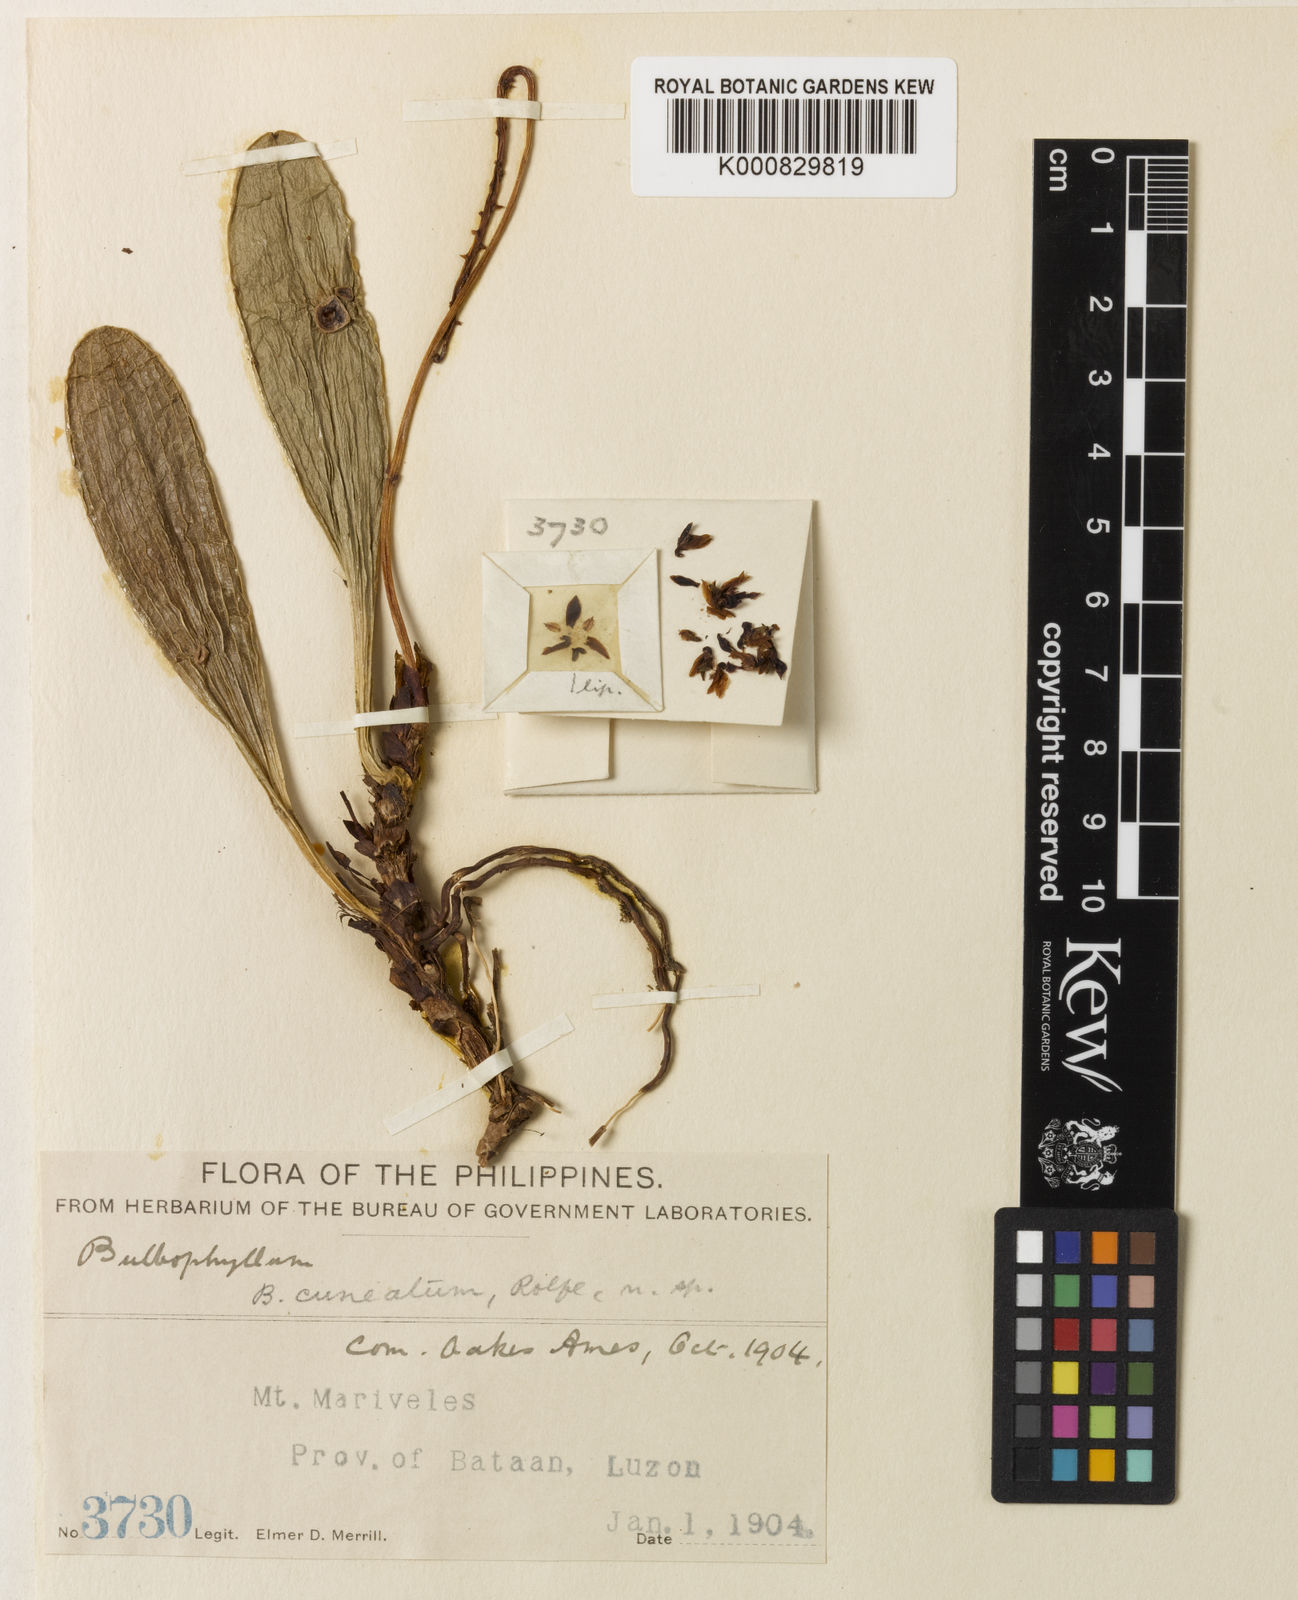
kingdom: Plantae
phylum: Tracheophyta
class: Liliopsida
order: Asparagales
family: Orchidaceae
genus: Bulbophyllum
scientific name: Bulbophyllum cumingii
